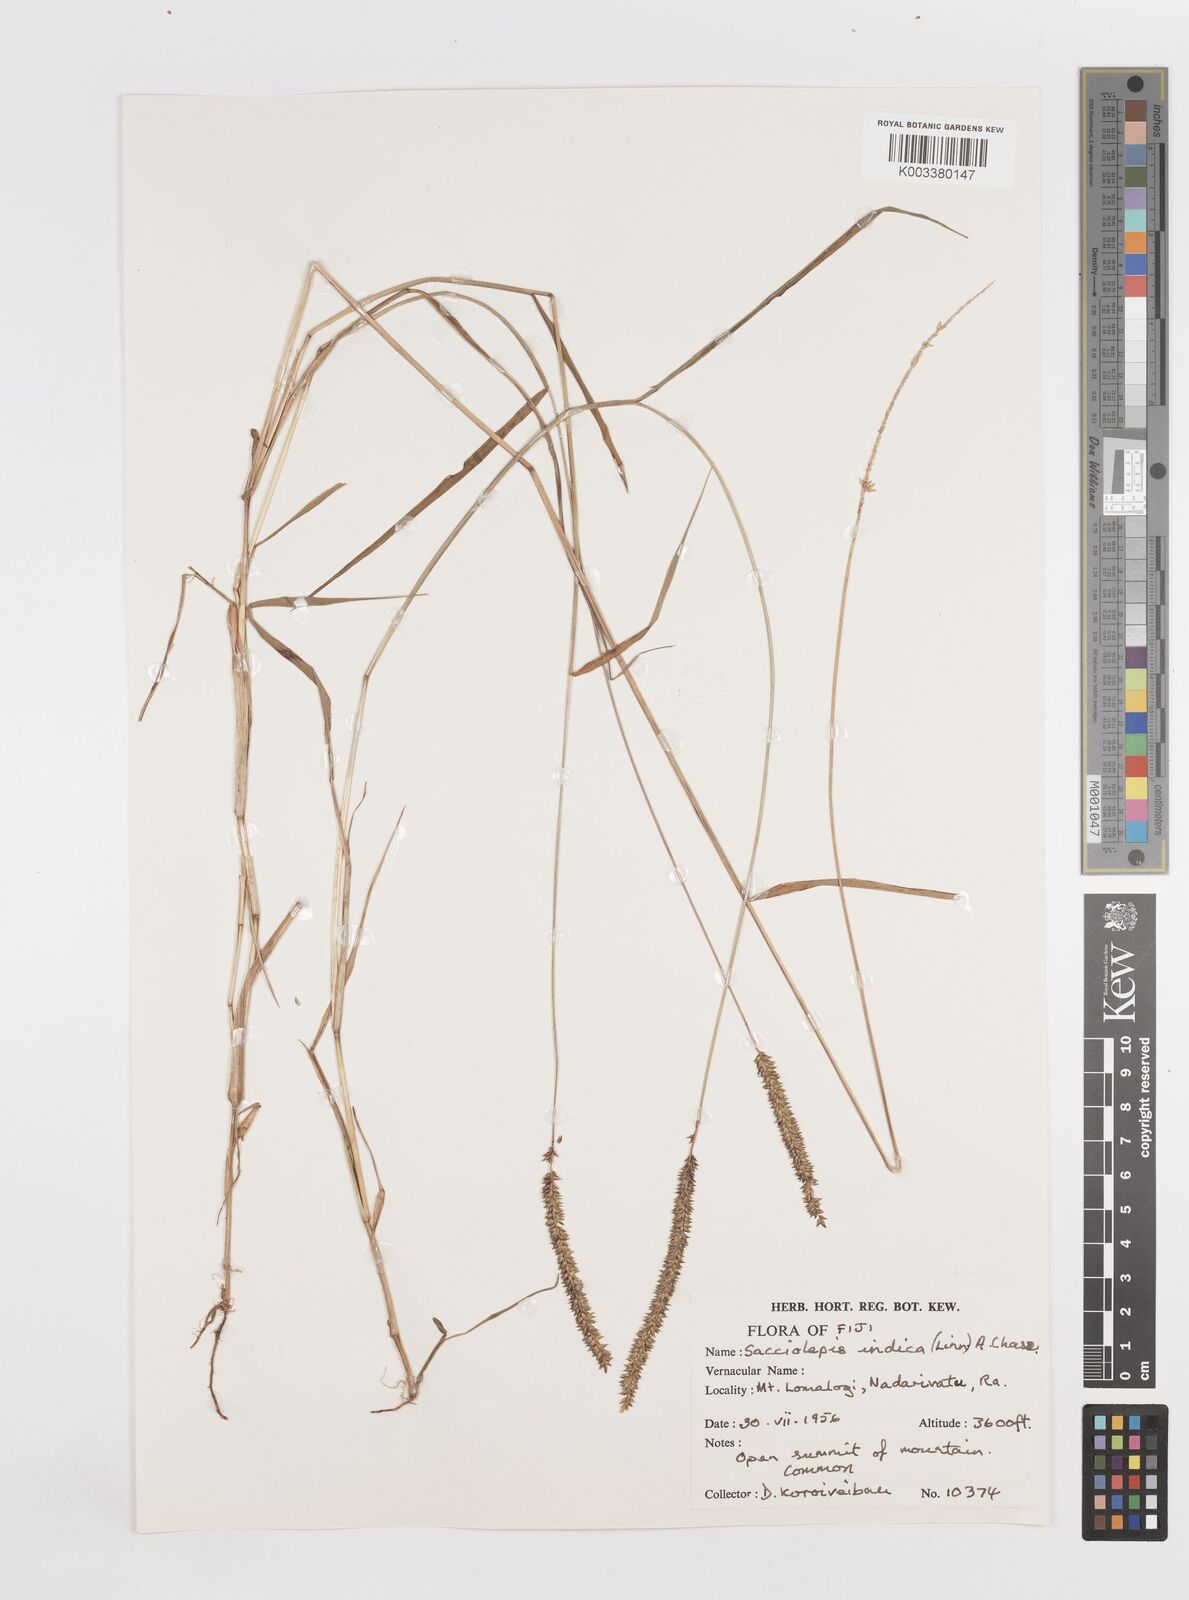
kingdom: Plantae
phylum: Tracheophyta
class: Liliopsida
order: Poales
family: Poaceae
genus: Sacciolepis
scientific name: Sacciolepis indica
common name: Glenwoodgrass
